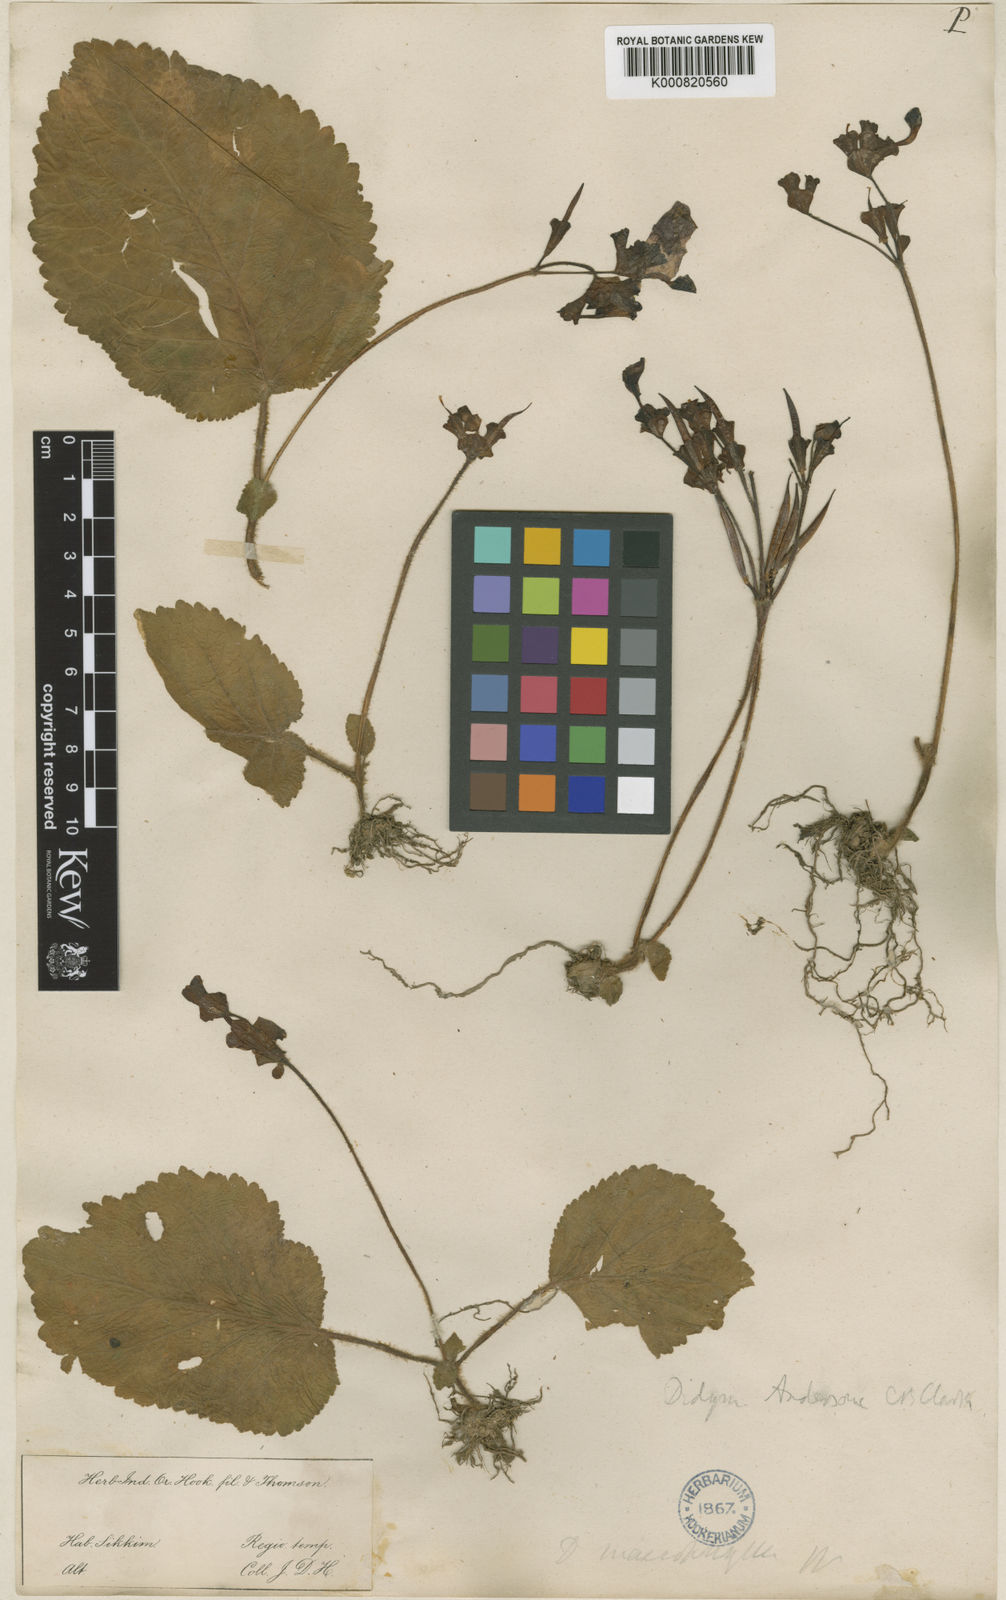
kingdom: Plantae
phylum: Tracheophyta
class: Magnoliopsida
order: Lamiales
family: Gesneriaceae
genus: Didymocarpus
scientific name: Didymocarpus andersonii
